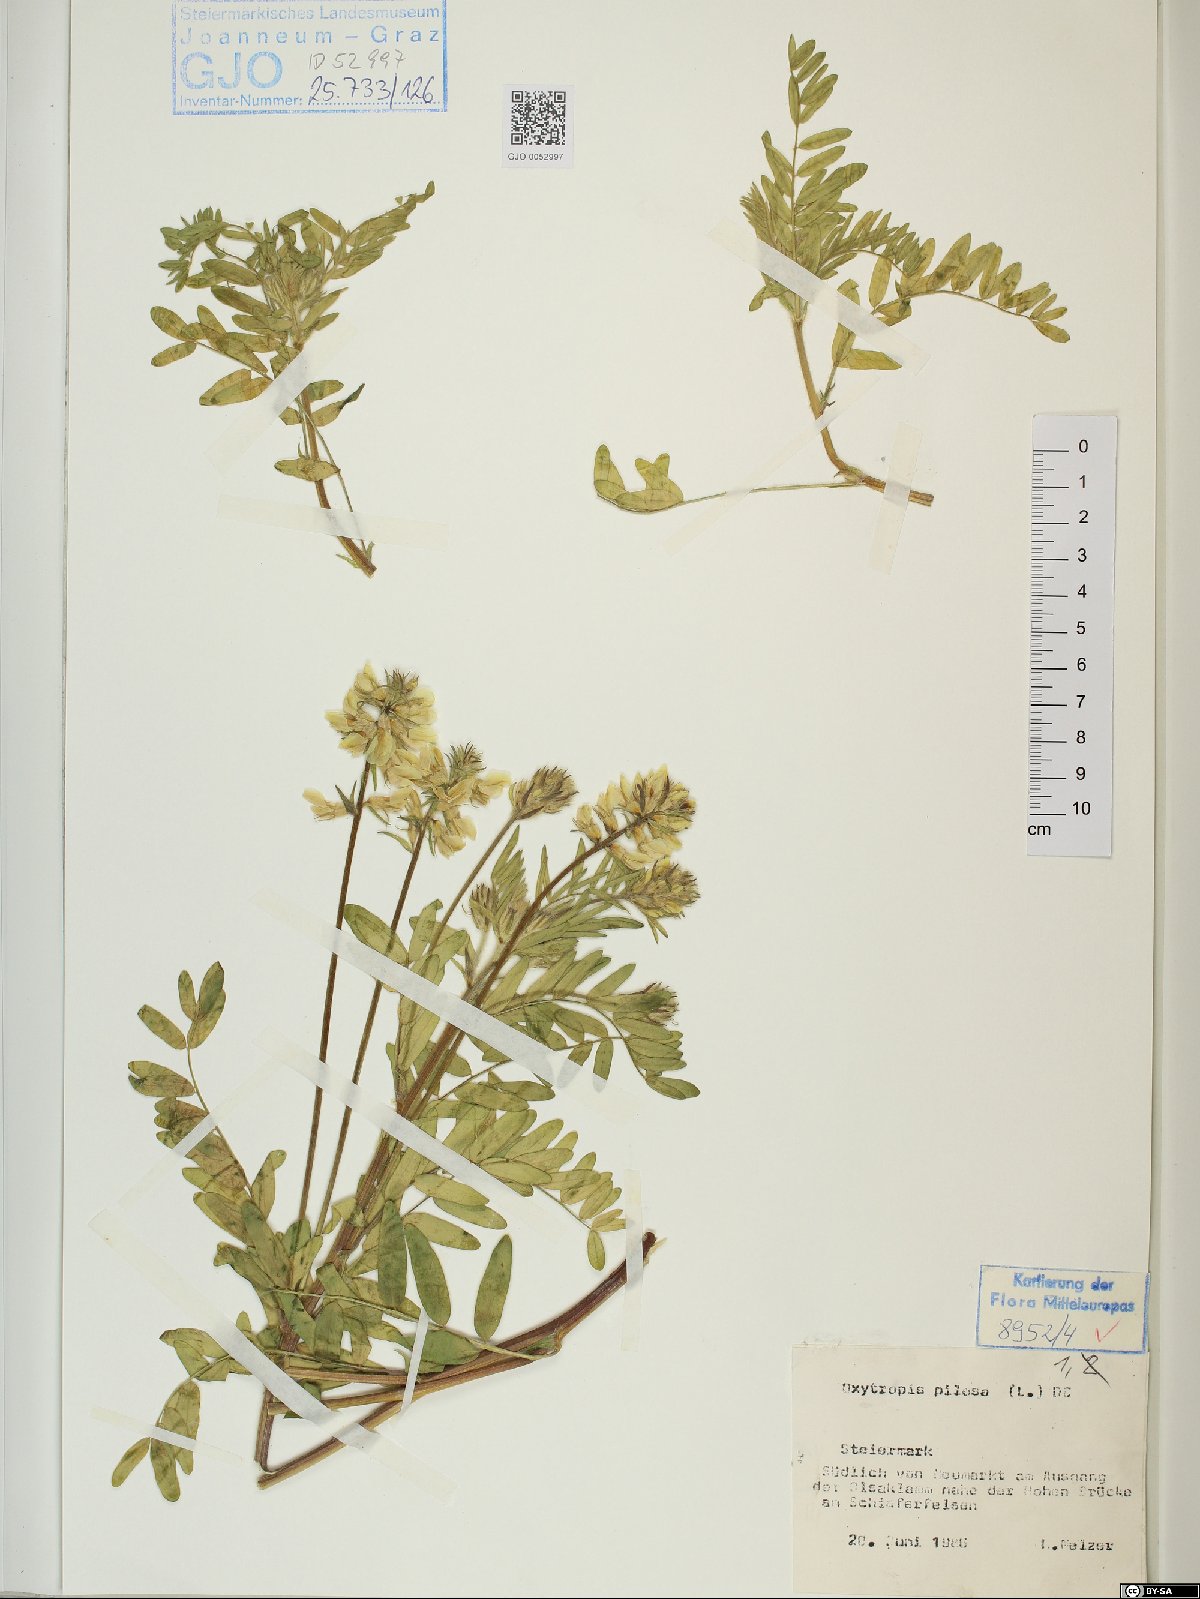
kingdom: Plantae
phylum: Tracheophyta
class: Magnoliopsida
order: Fabales
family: Fabaceae
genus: Oxytropis
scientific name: Oxytropis pilosa
